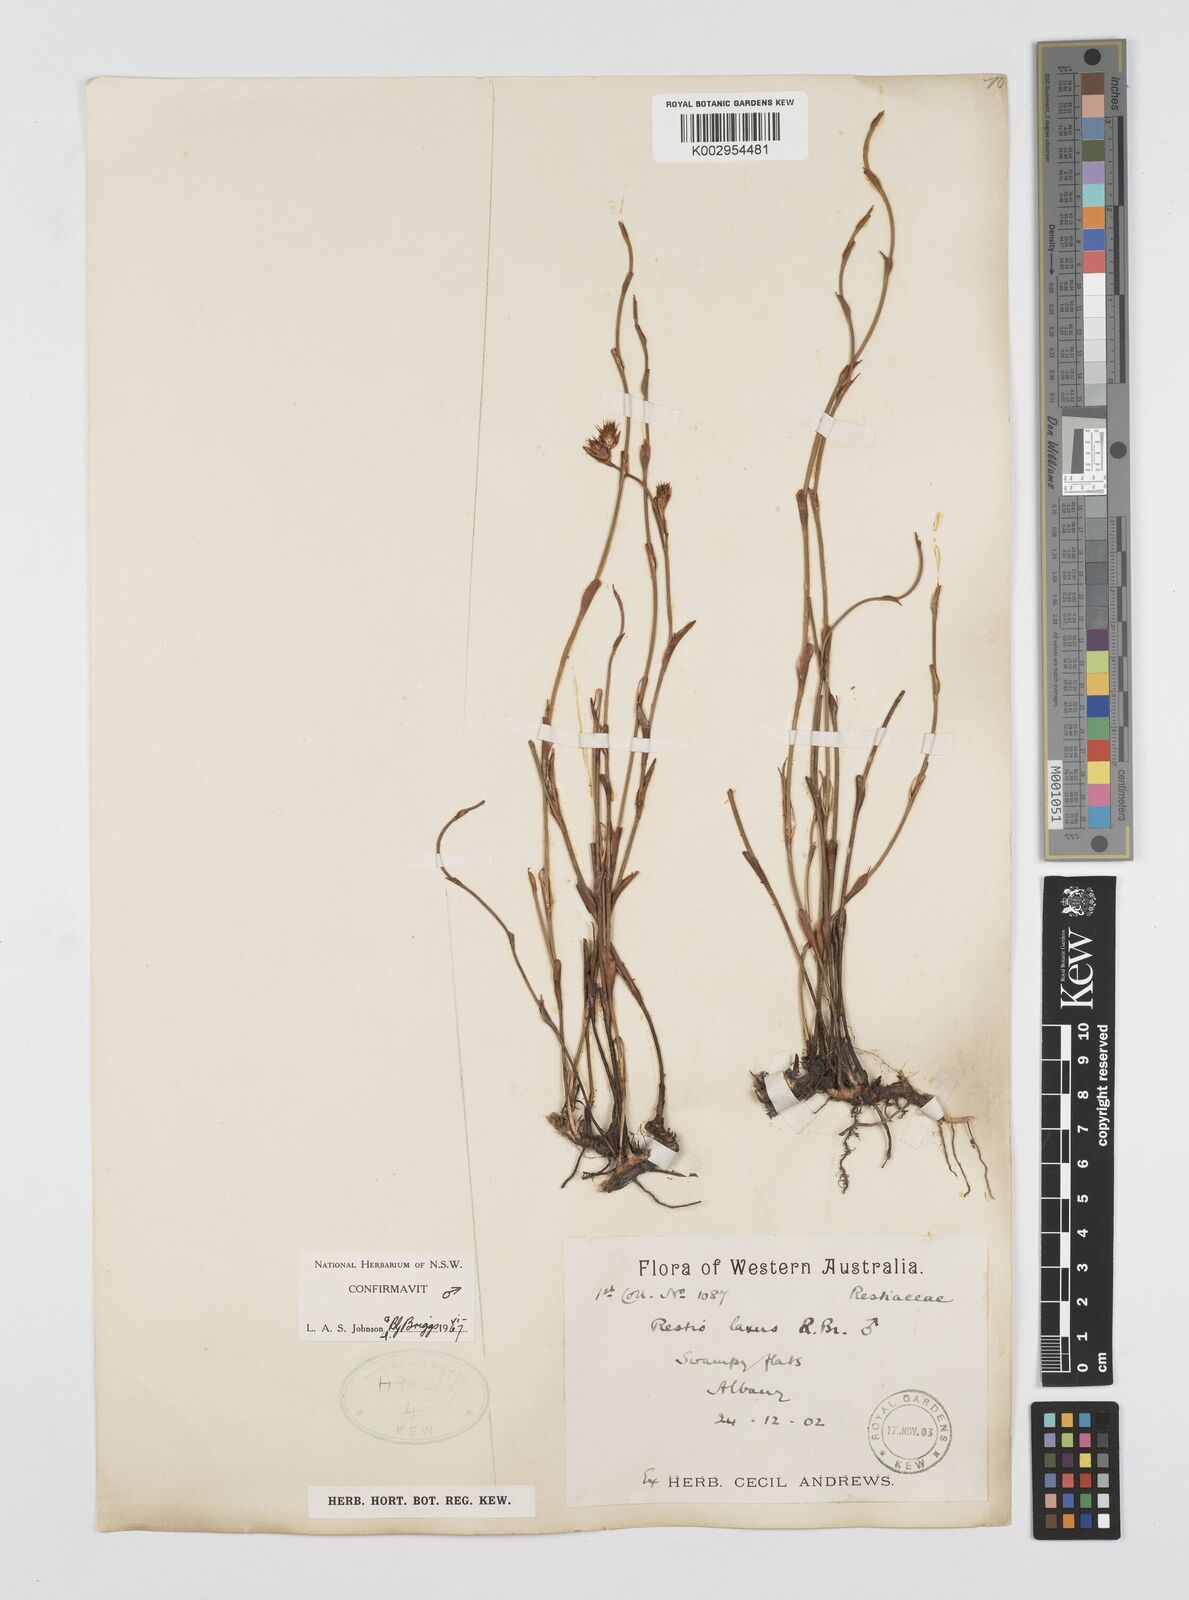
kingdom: Plantae
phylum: Tracheophyta
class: Liliopsida
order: Poales
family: Restionaceae
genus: Chordifex
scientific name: Chordifex laxus
